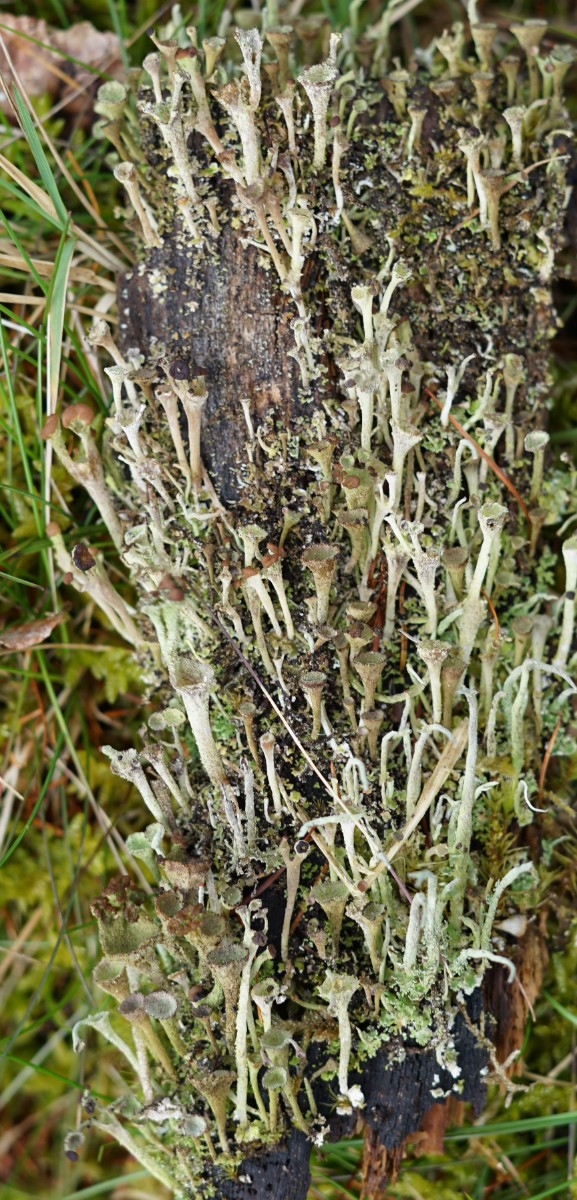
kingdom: Fungi
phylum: Ascomycota
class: Lecanoromycetes
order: Lecanorales
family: Cladoniaceae
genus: Cladonia
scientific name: Cladonia
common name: brungrøn bægerlav
